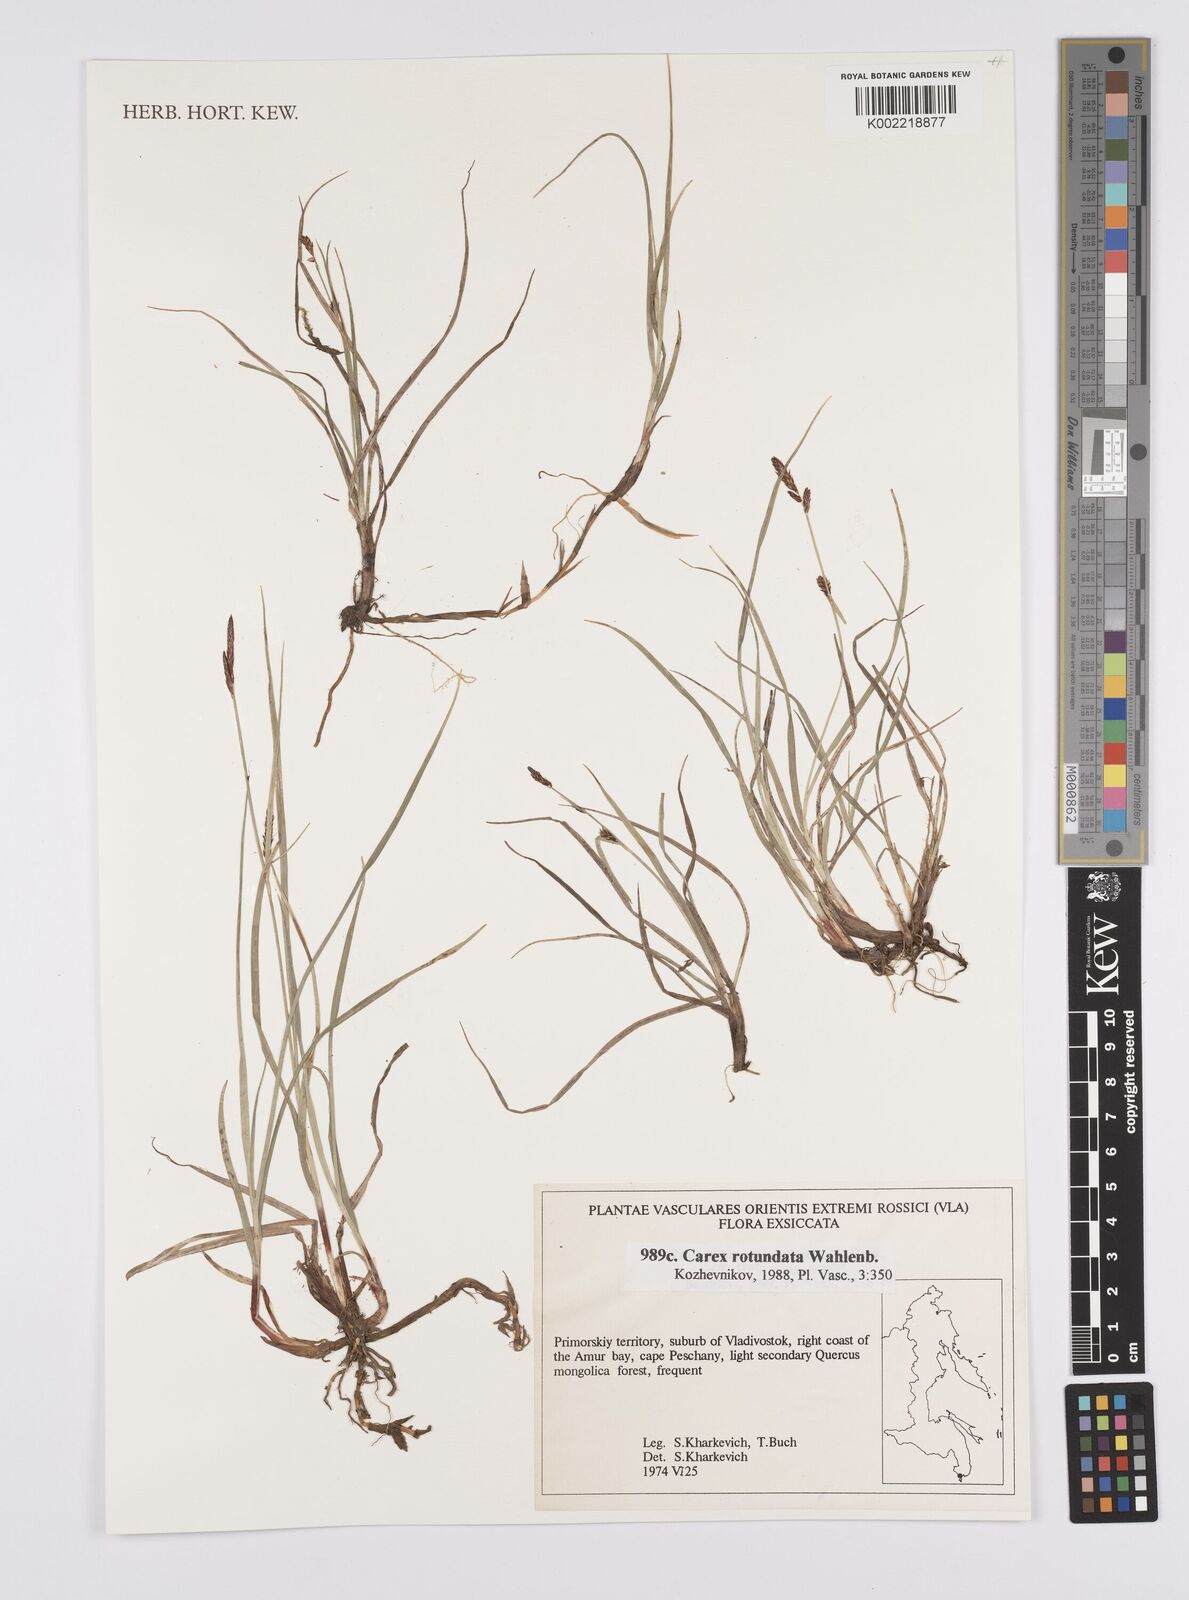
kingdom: Plantae
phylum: Tracheophyta
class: Liliopsida
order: Poales
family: Cyperaceae
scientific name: Cyperaceae
